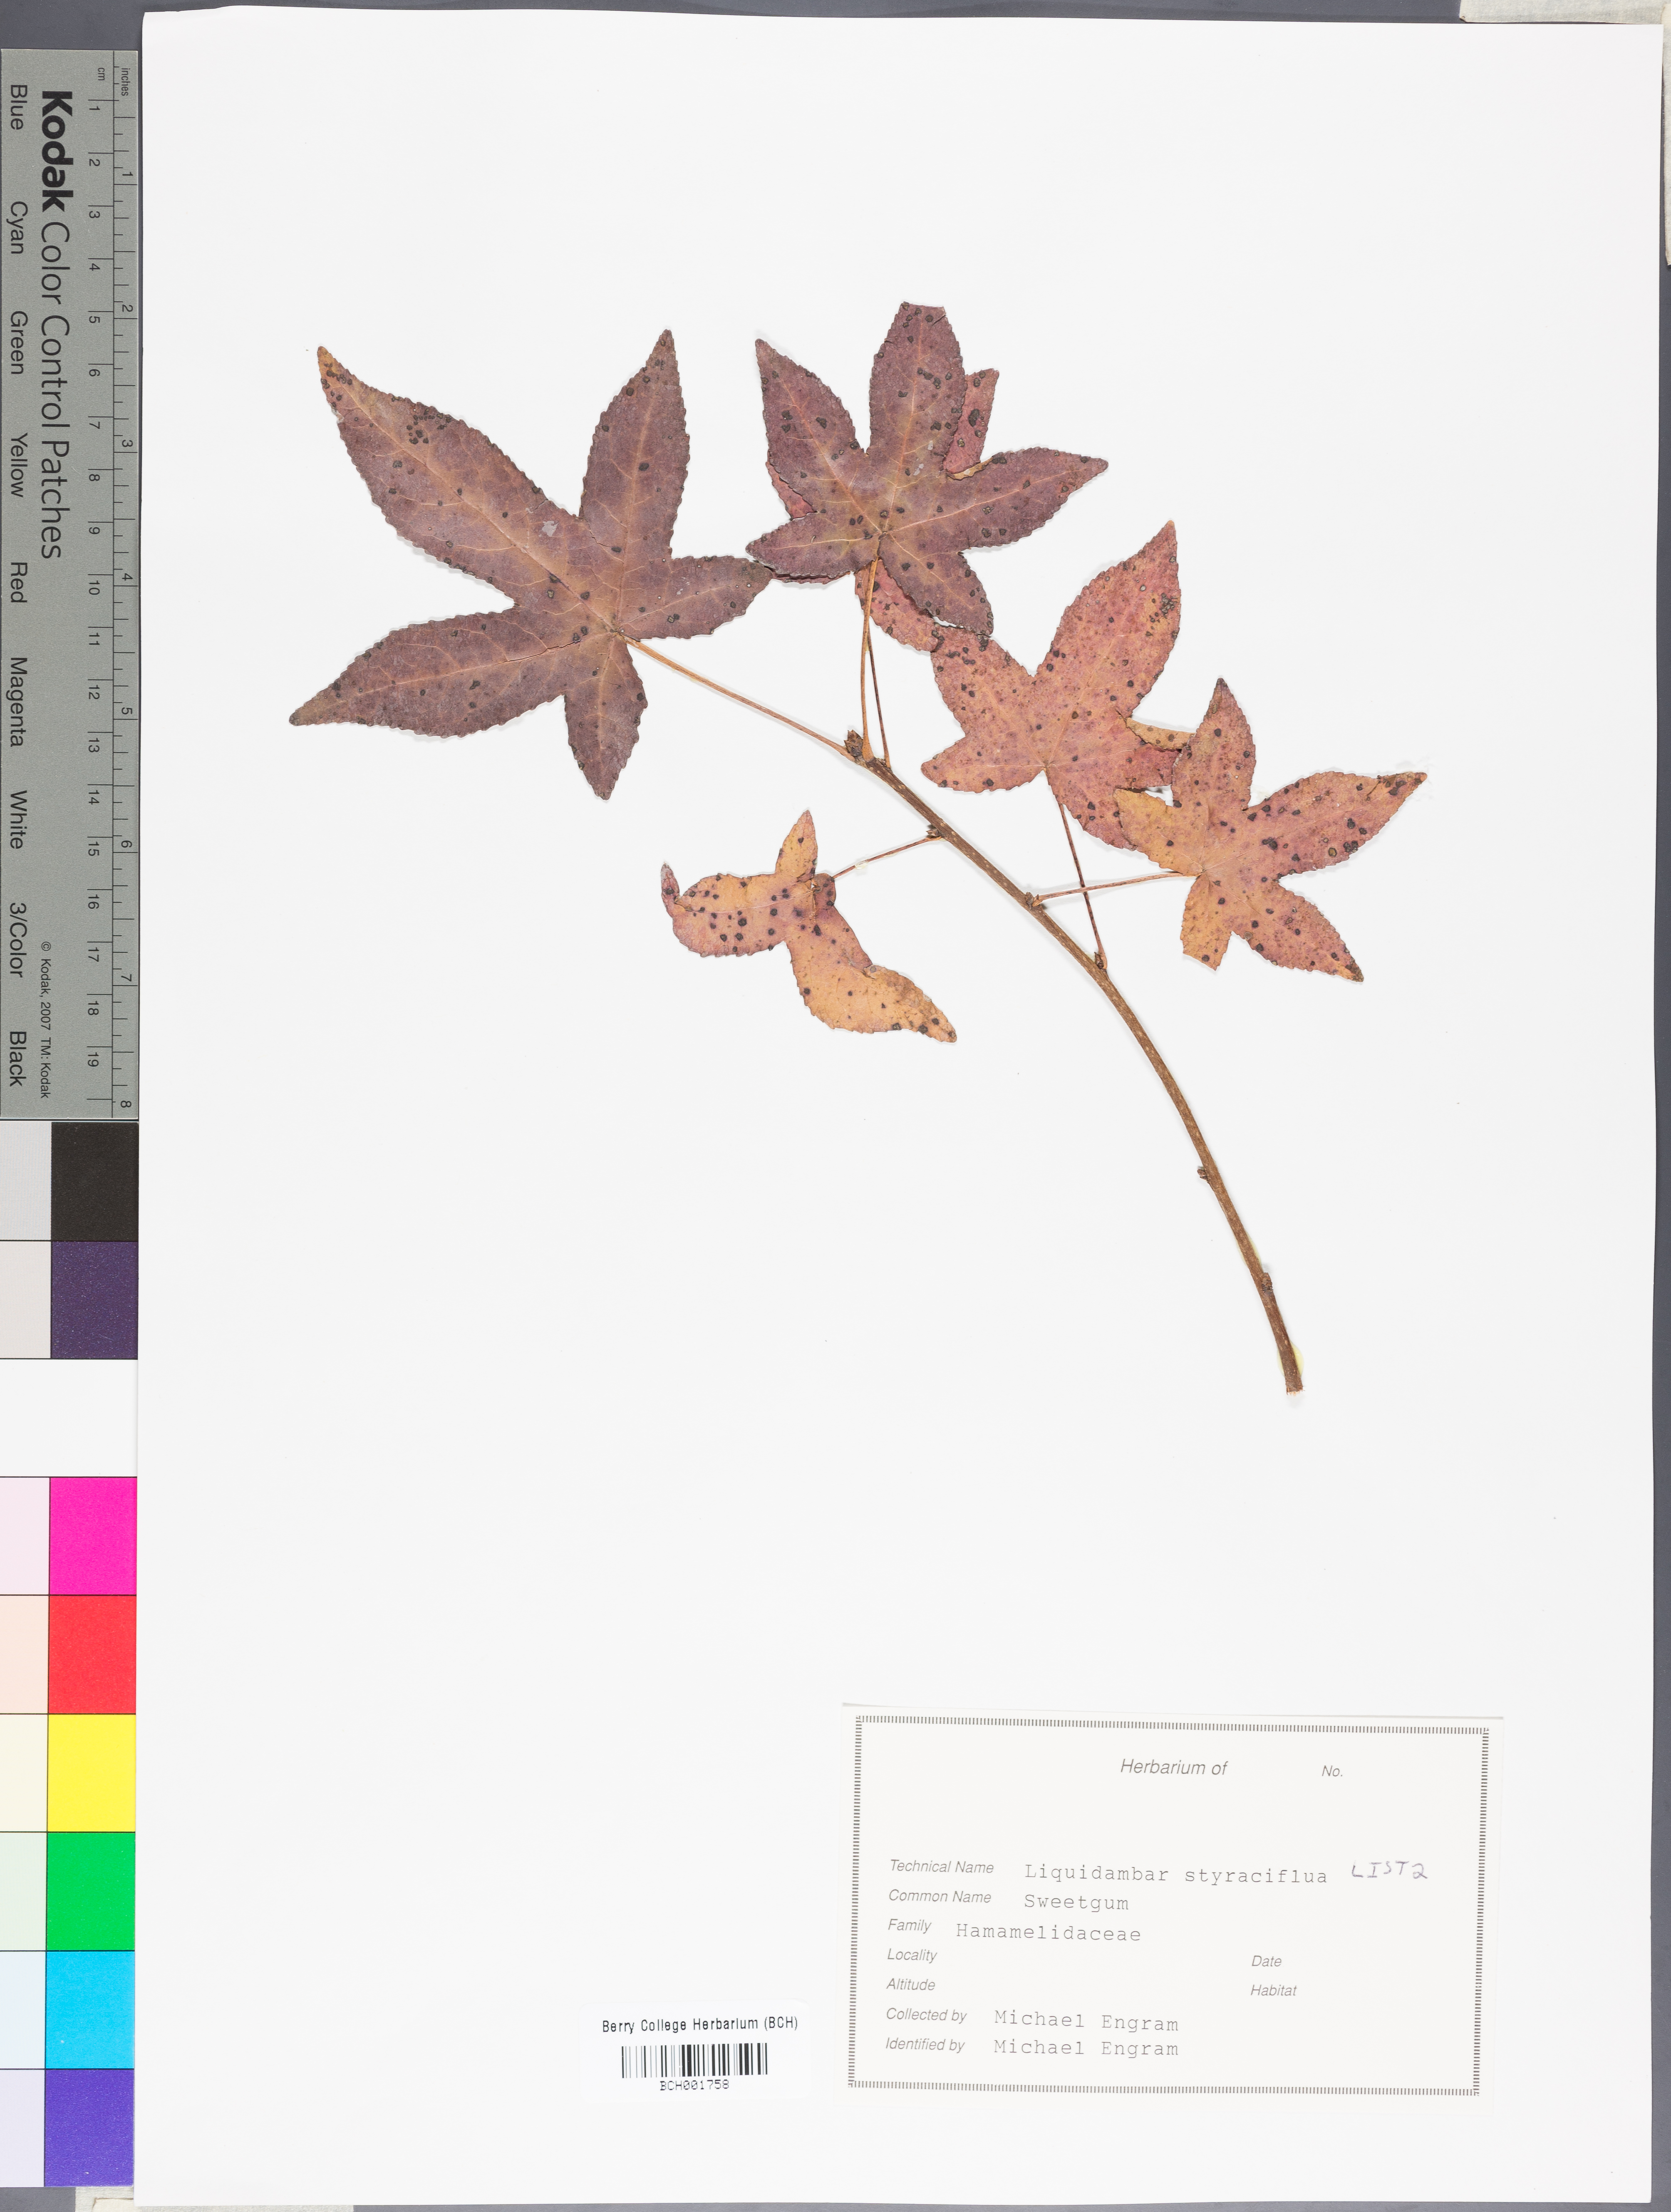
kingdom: Plantae
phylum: Tracheophyta
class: Magnoliopsida
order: Saxifragales
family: Altingiaceae
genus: Liquidambar
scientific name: Liquidambar styraciflua
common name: Sweet gum
